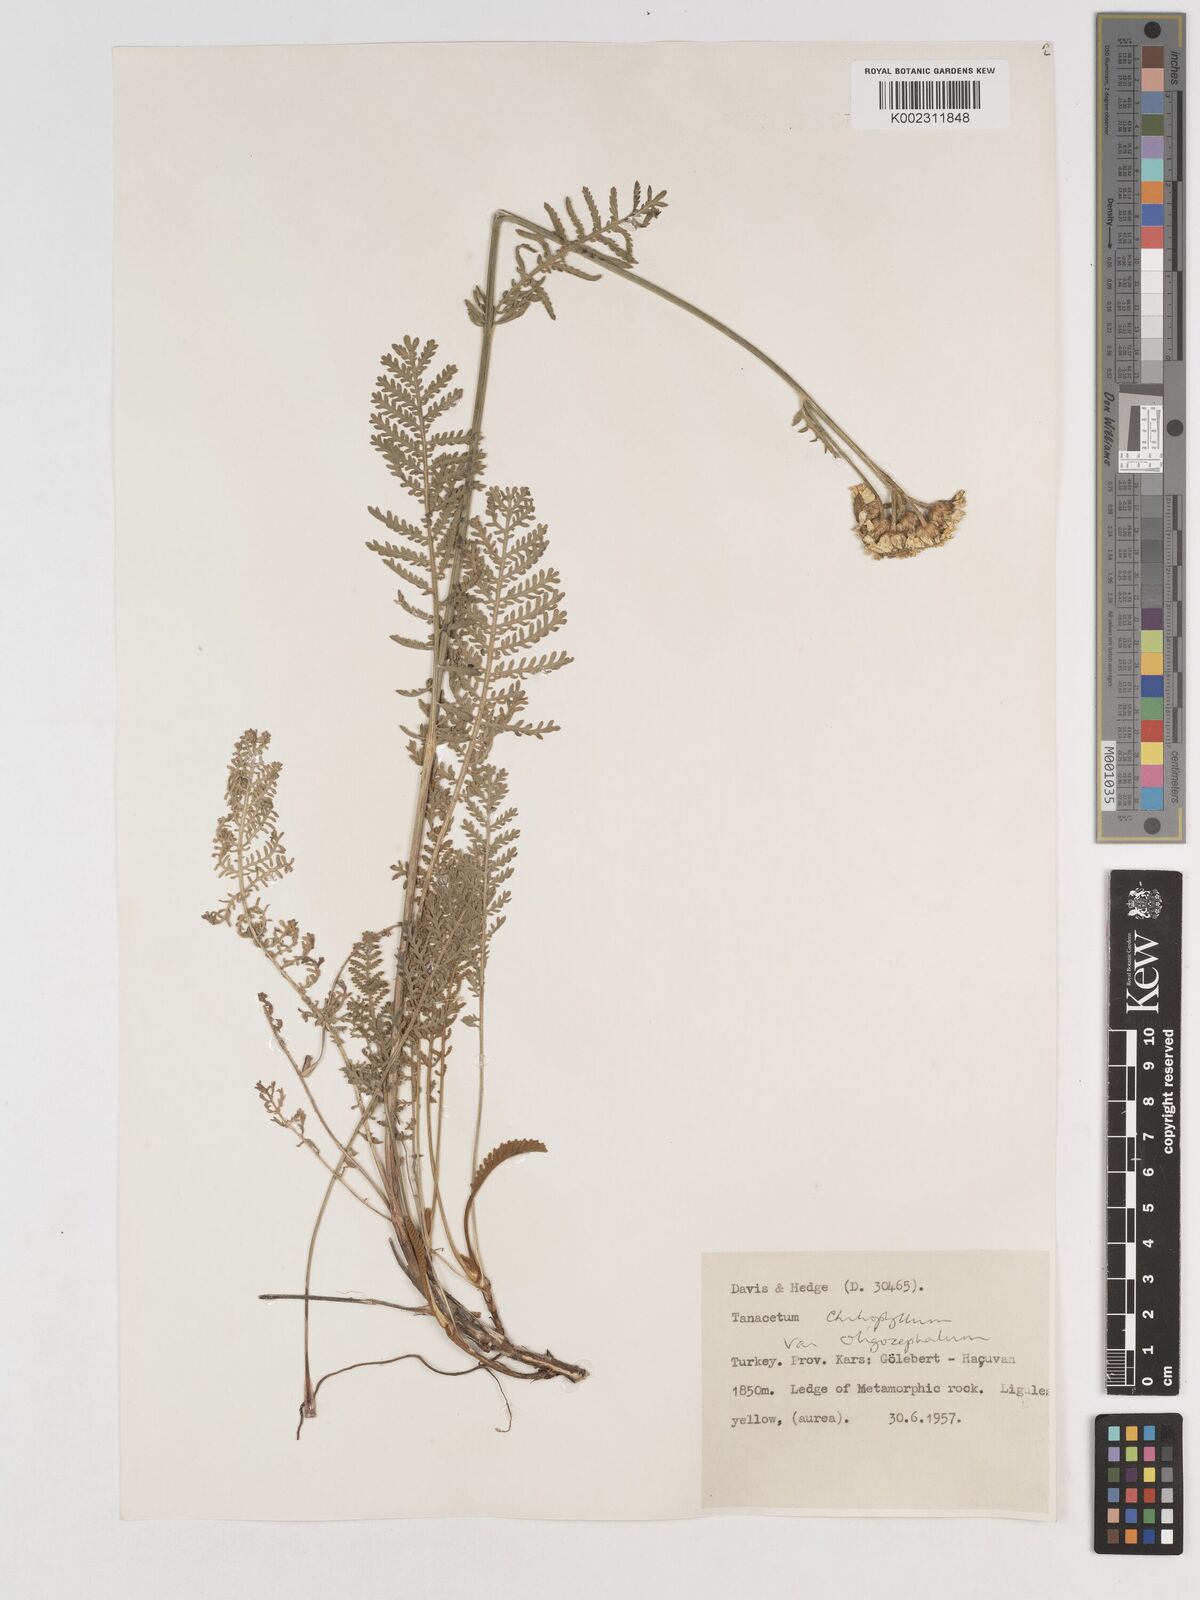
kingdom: Plantae
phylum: Tracheophyta
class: Magnoliopsida
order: Asterales
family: Asteraceae
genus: Tanacetum
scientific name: Tanacetum aureum
